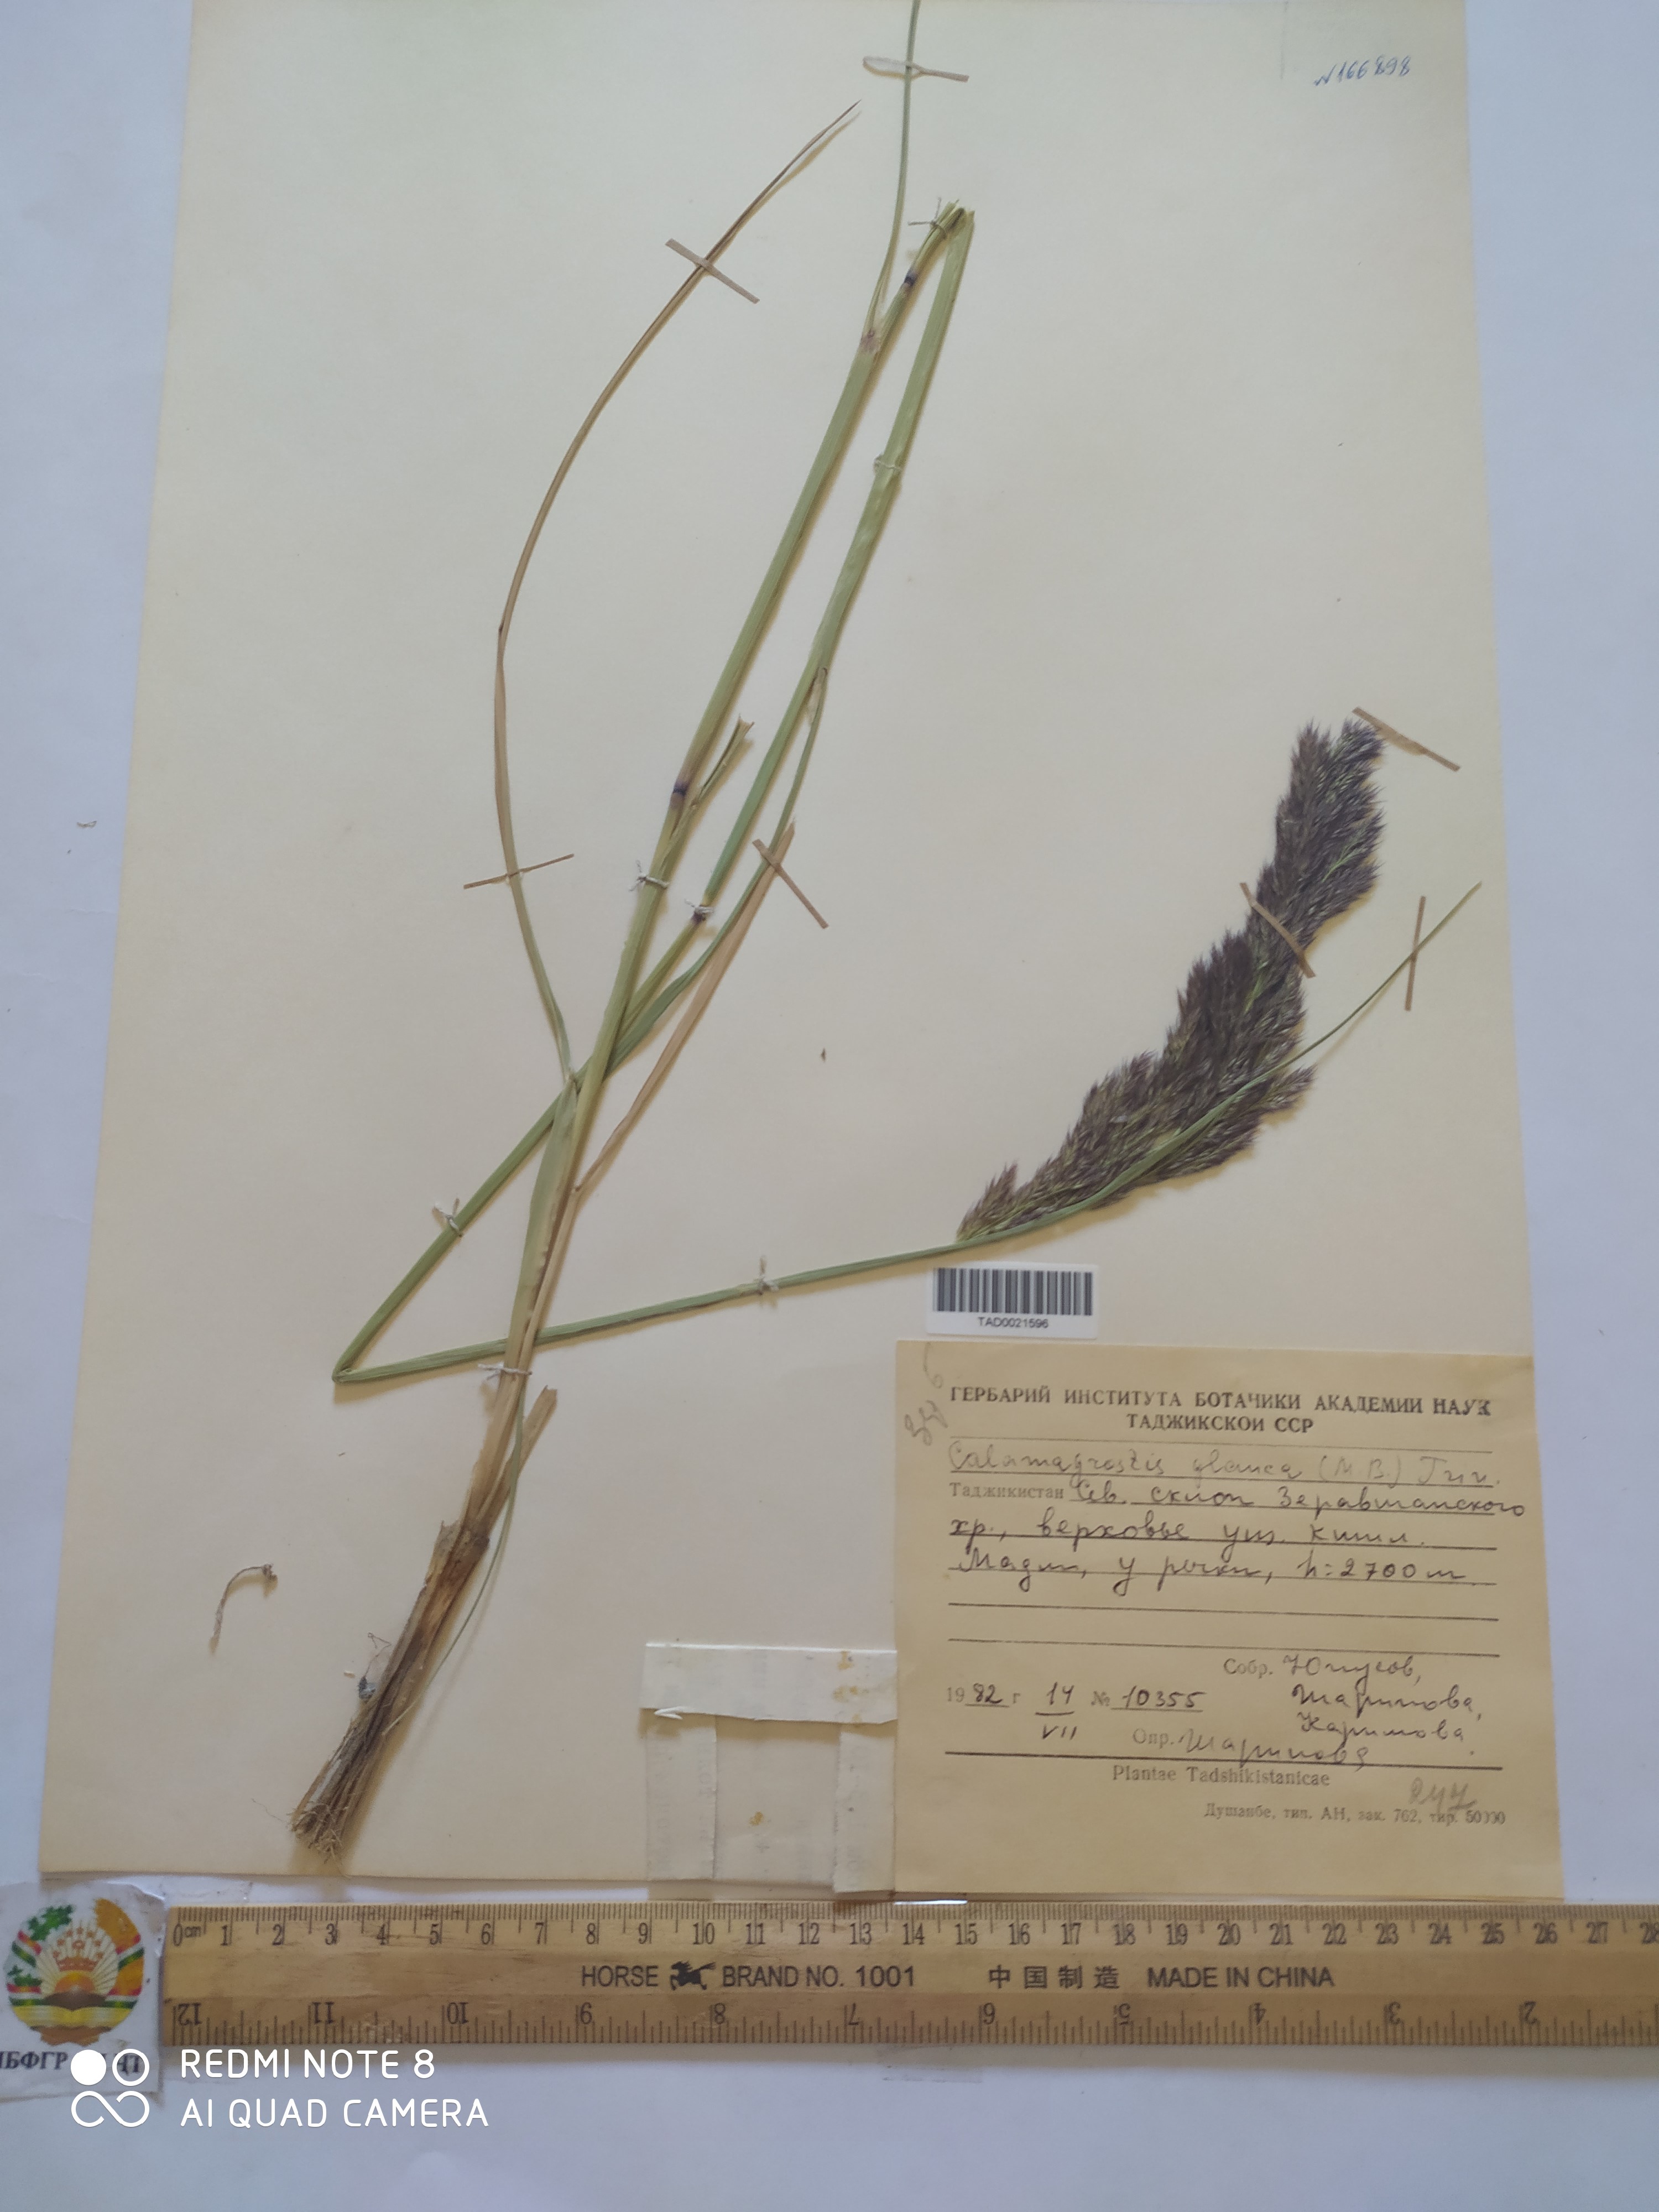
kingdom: Plantae
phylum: Tracheophyta
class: Liliopsida
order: Poales
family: Poaceae
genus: Calamagrostis
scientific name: Calamagrostis pseudophragmites
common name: Coastal small-reed
